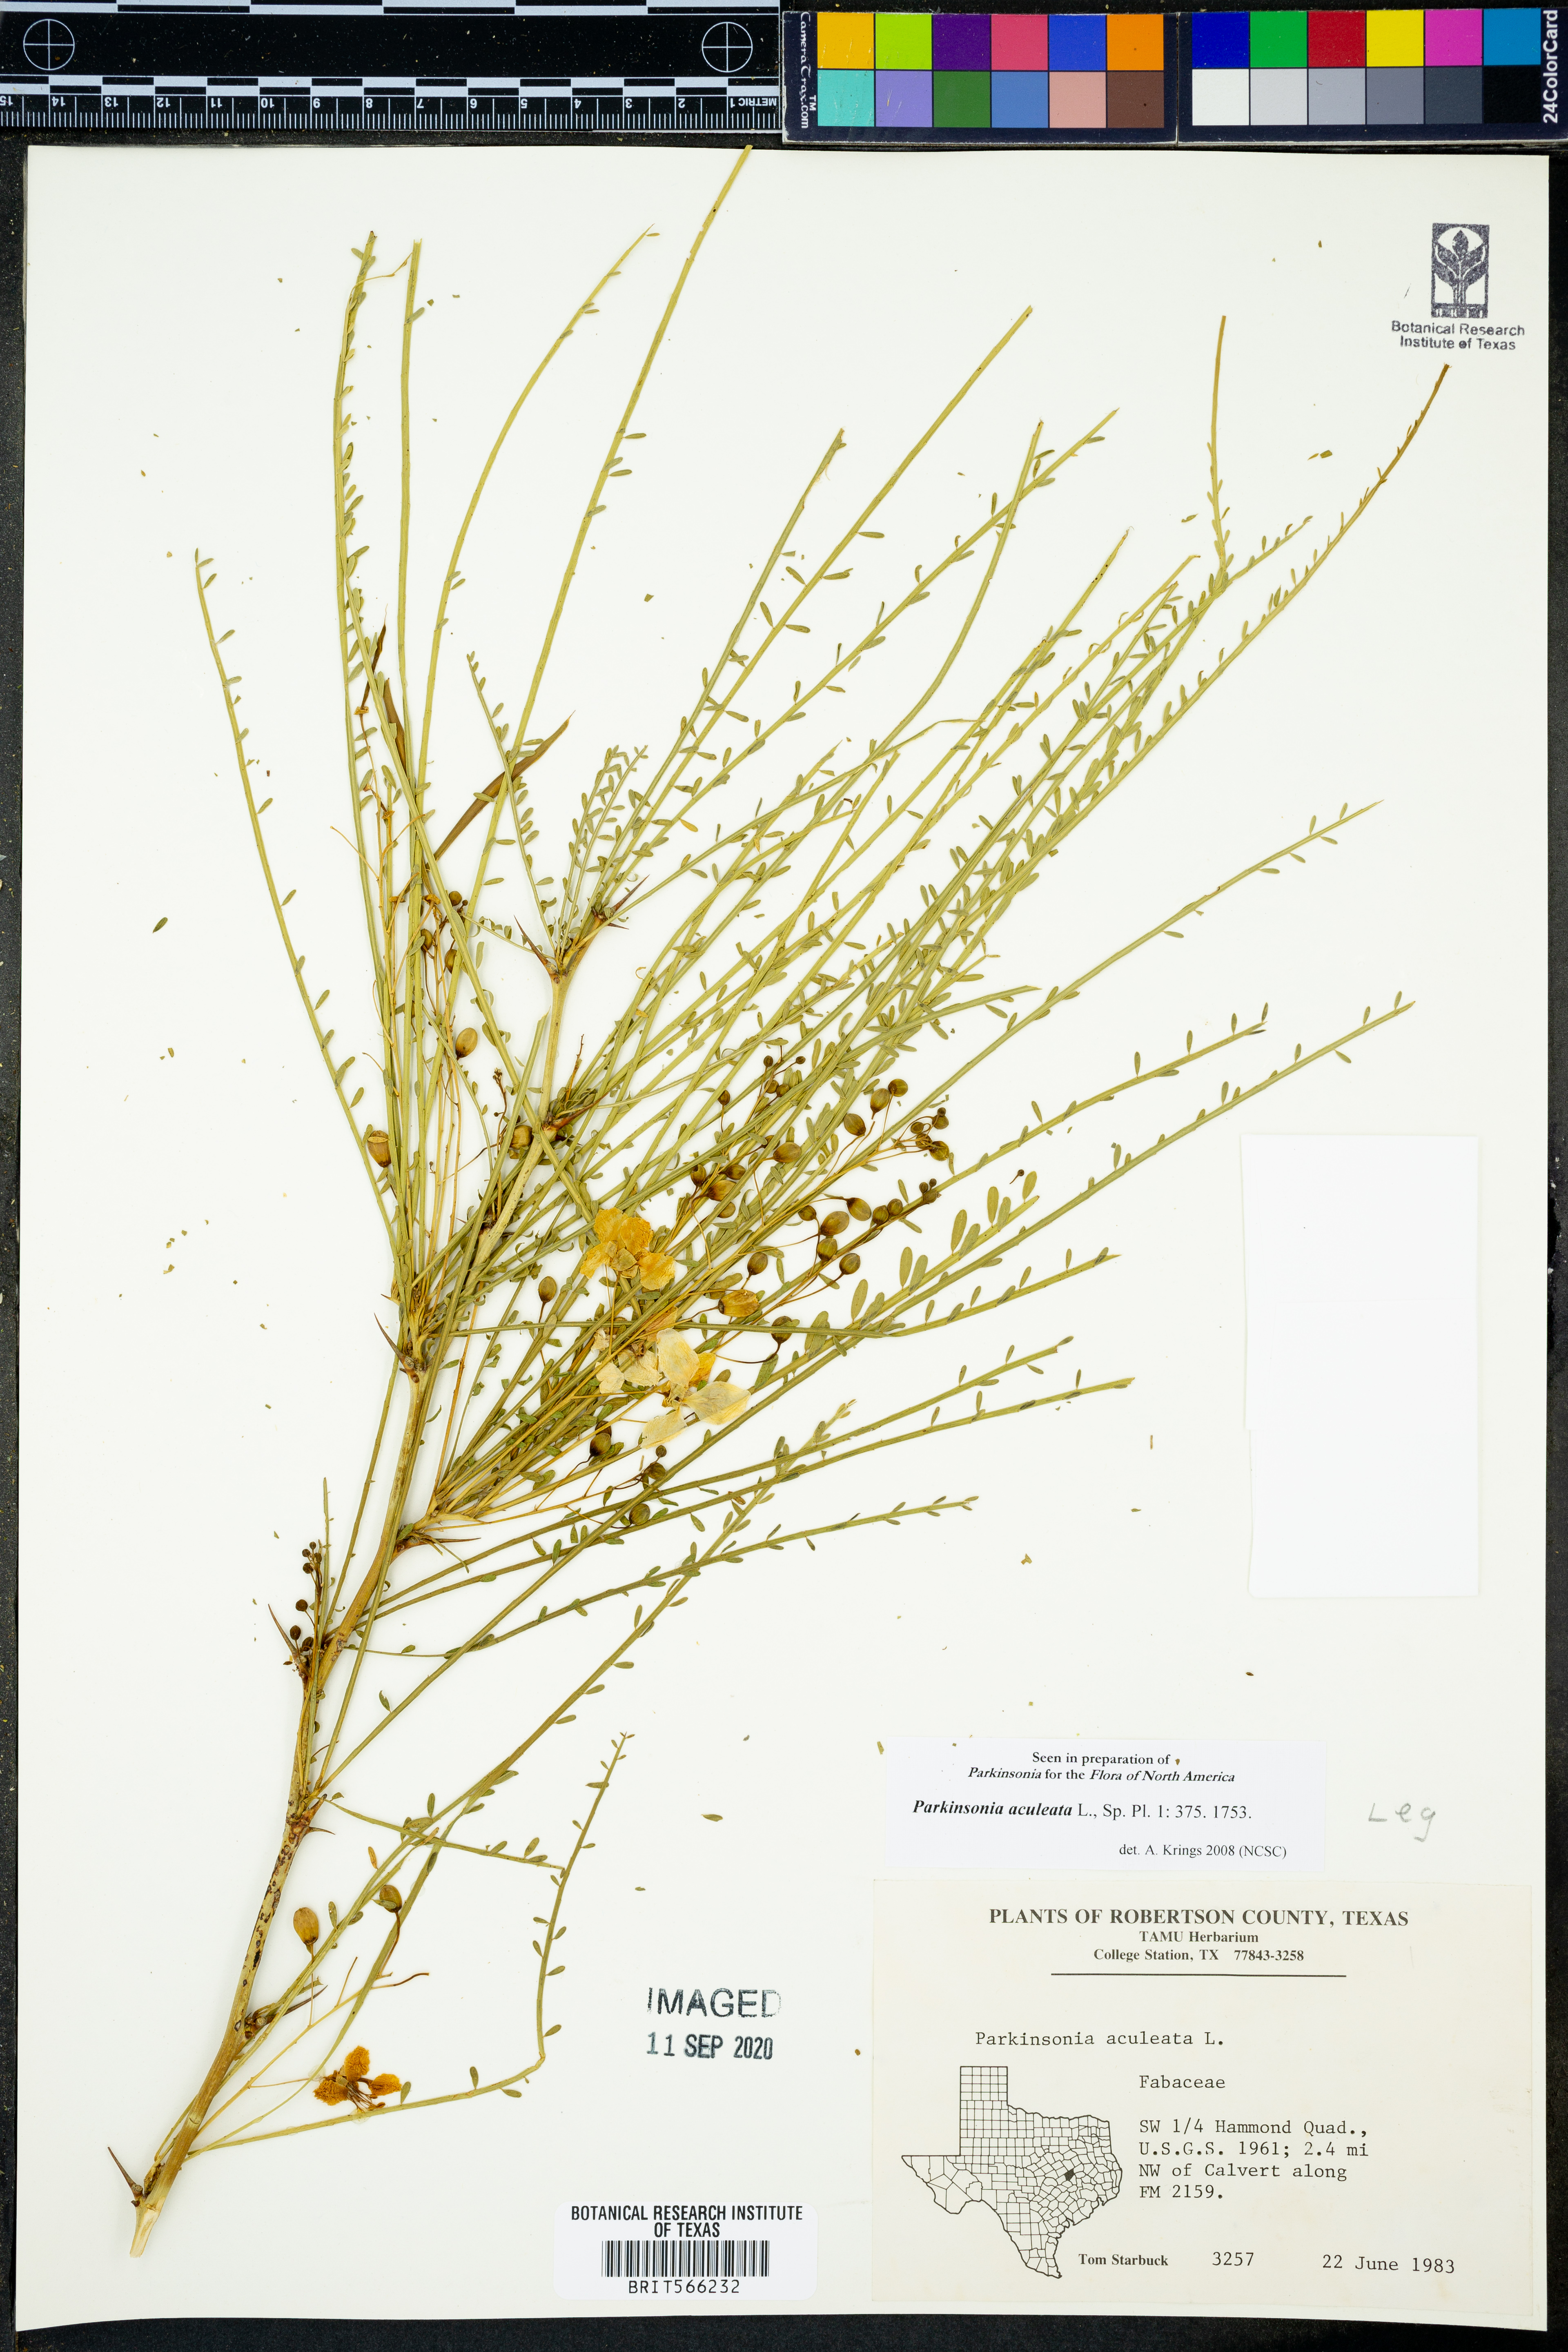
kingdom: Plantae
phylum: Tracheophyta
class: Magnoliopsida
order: Fabales
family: Fabaceae
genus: Parkinsonia
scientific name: Parkinsonia aculeata
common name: Jerusalem thorn
